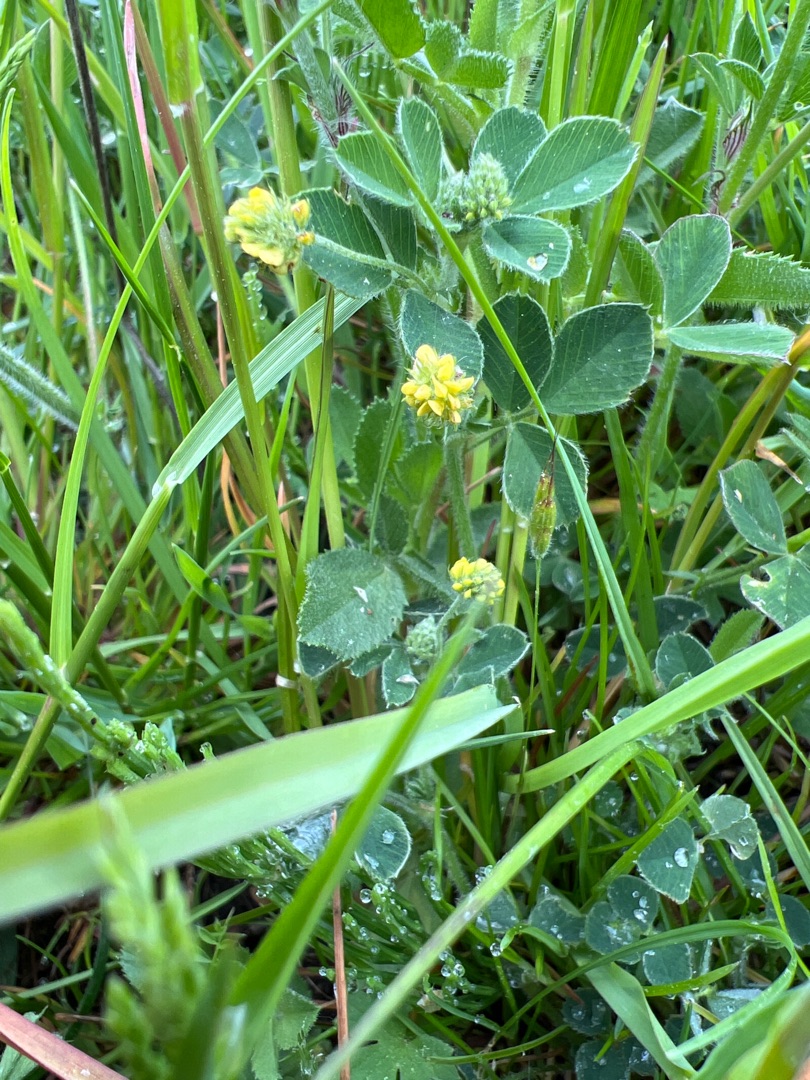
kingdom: Plantae
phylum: Tracheophyta
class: Magnoliopsida
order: Fabales
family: Fabaceae
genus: Medicago
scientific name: Medicago lupulina
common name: Humle-sneglebælg
